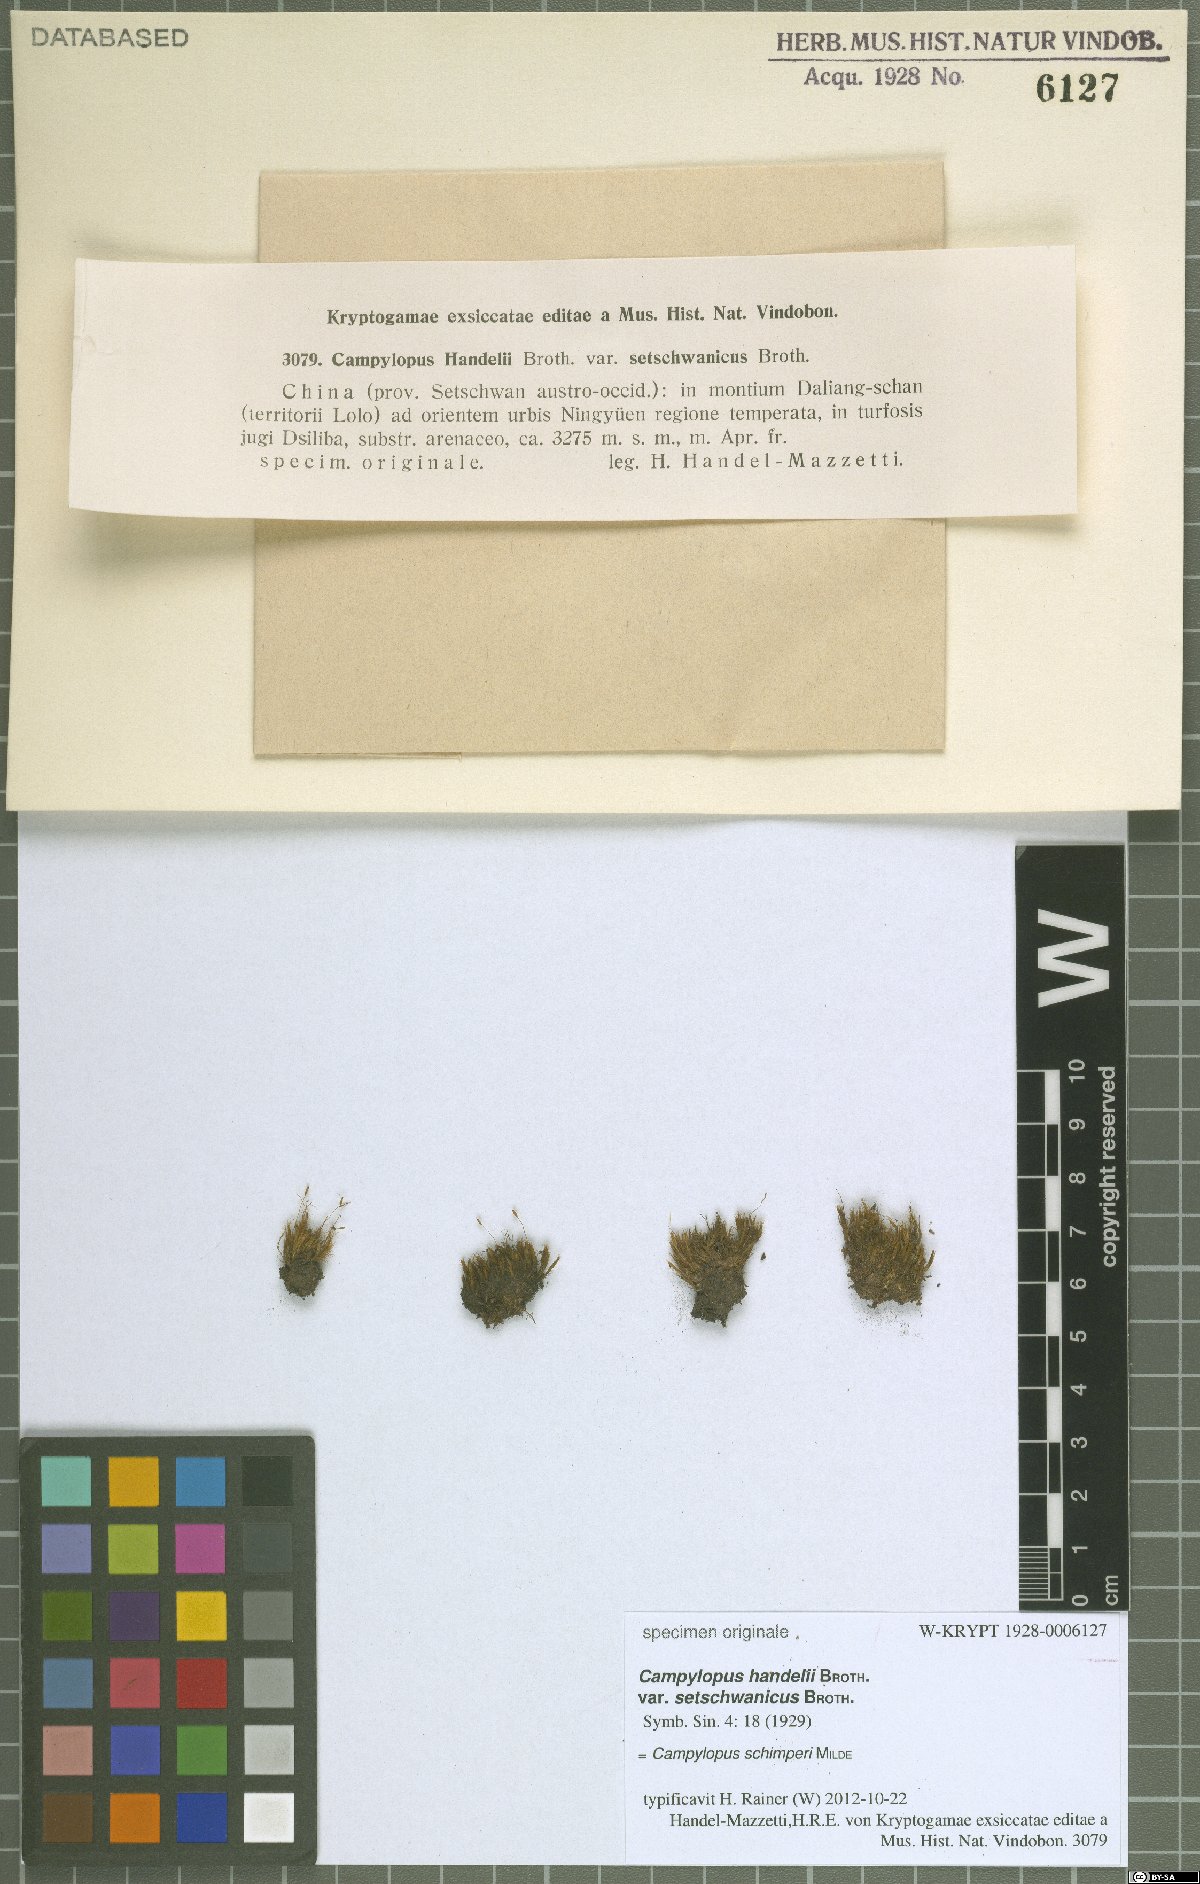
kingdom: Plantae
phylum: Bryophyta
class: Bryopsida
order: Dicranales
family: Leucobryaceae
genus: Campylopus
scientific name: Campylopus schimperi
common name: Schimper's swan-neck moss
